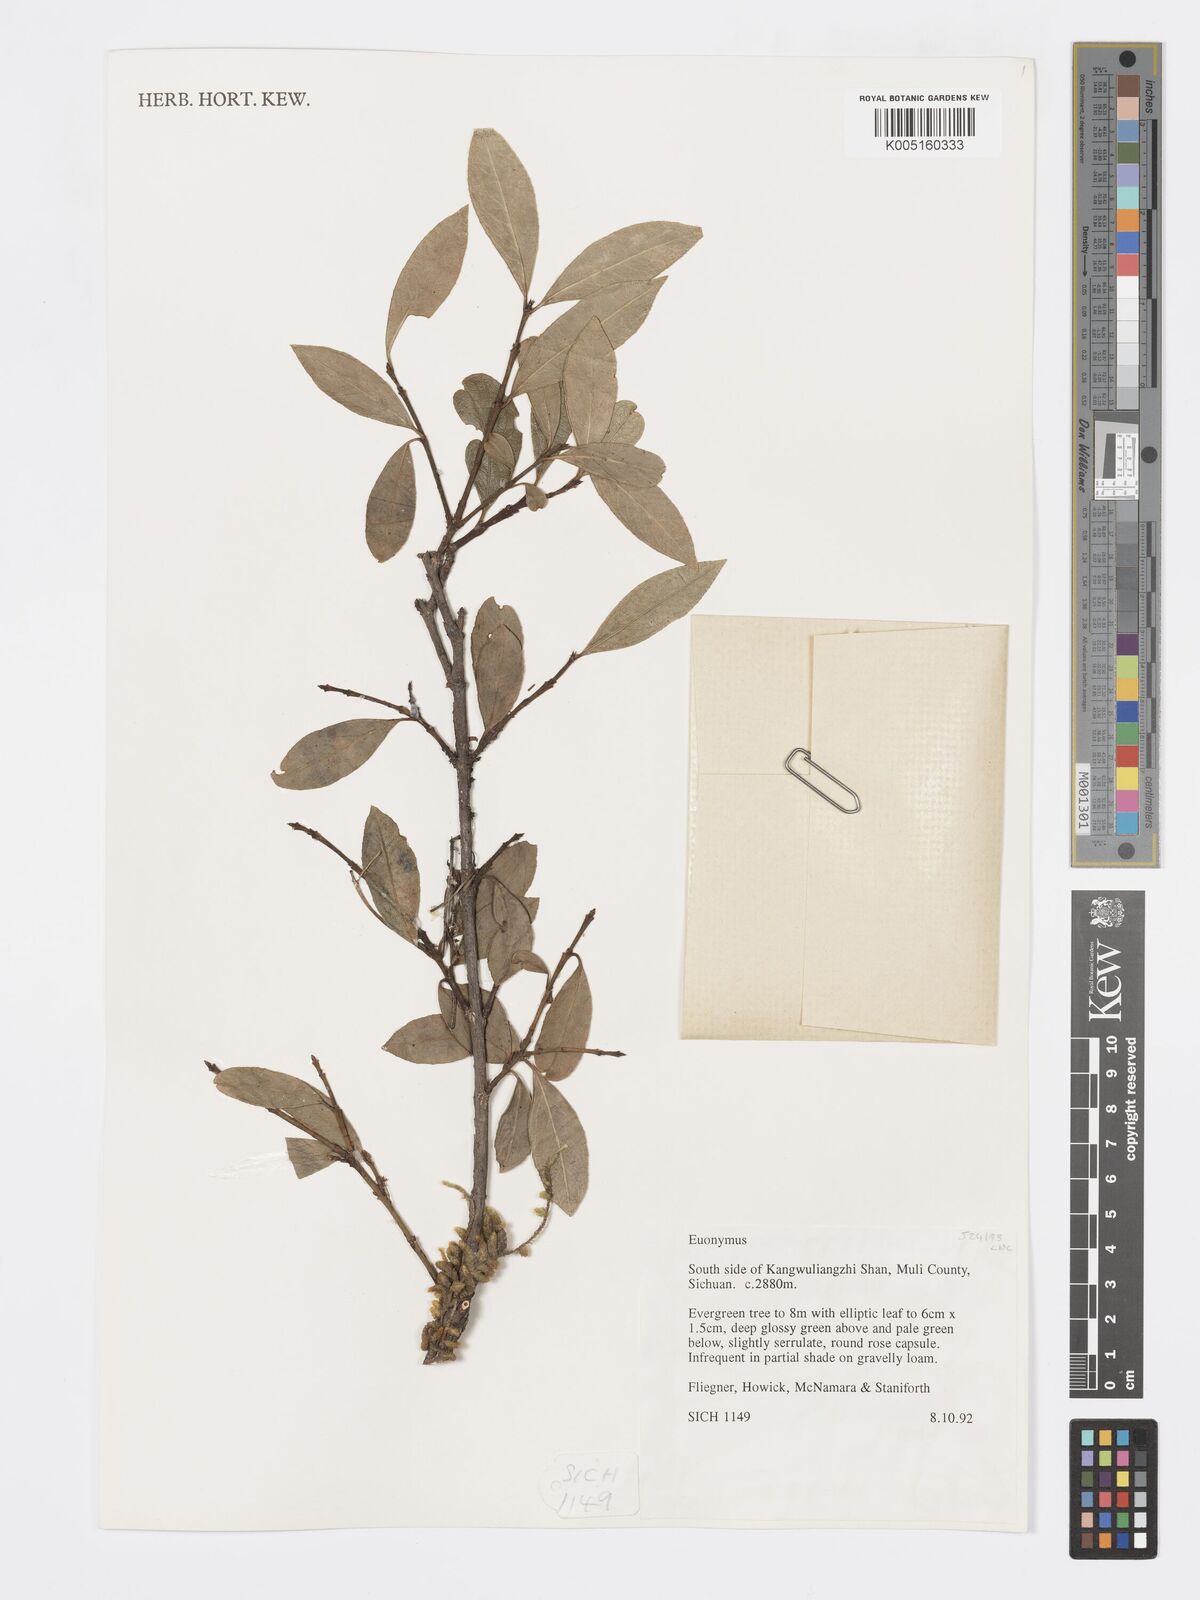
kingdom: Plantae
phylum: Tracheophyta
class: Magnoliopsida
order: Celastrales
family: Celastraceae
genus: Euonymus
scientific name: Euonymus
